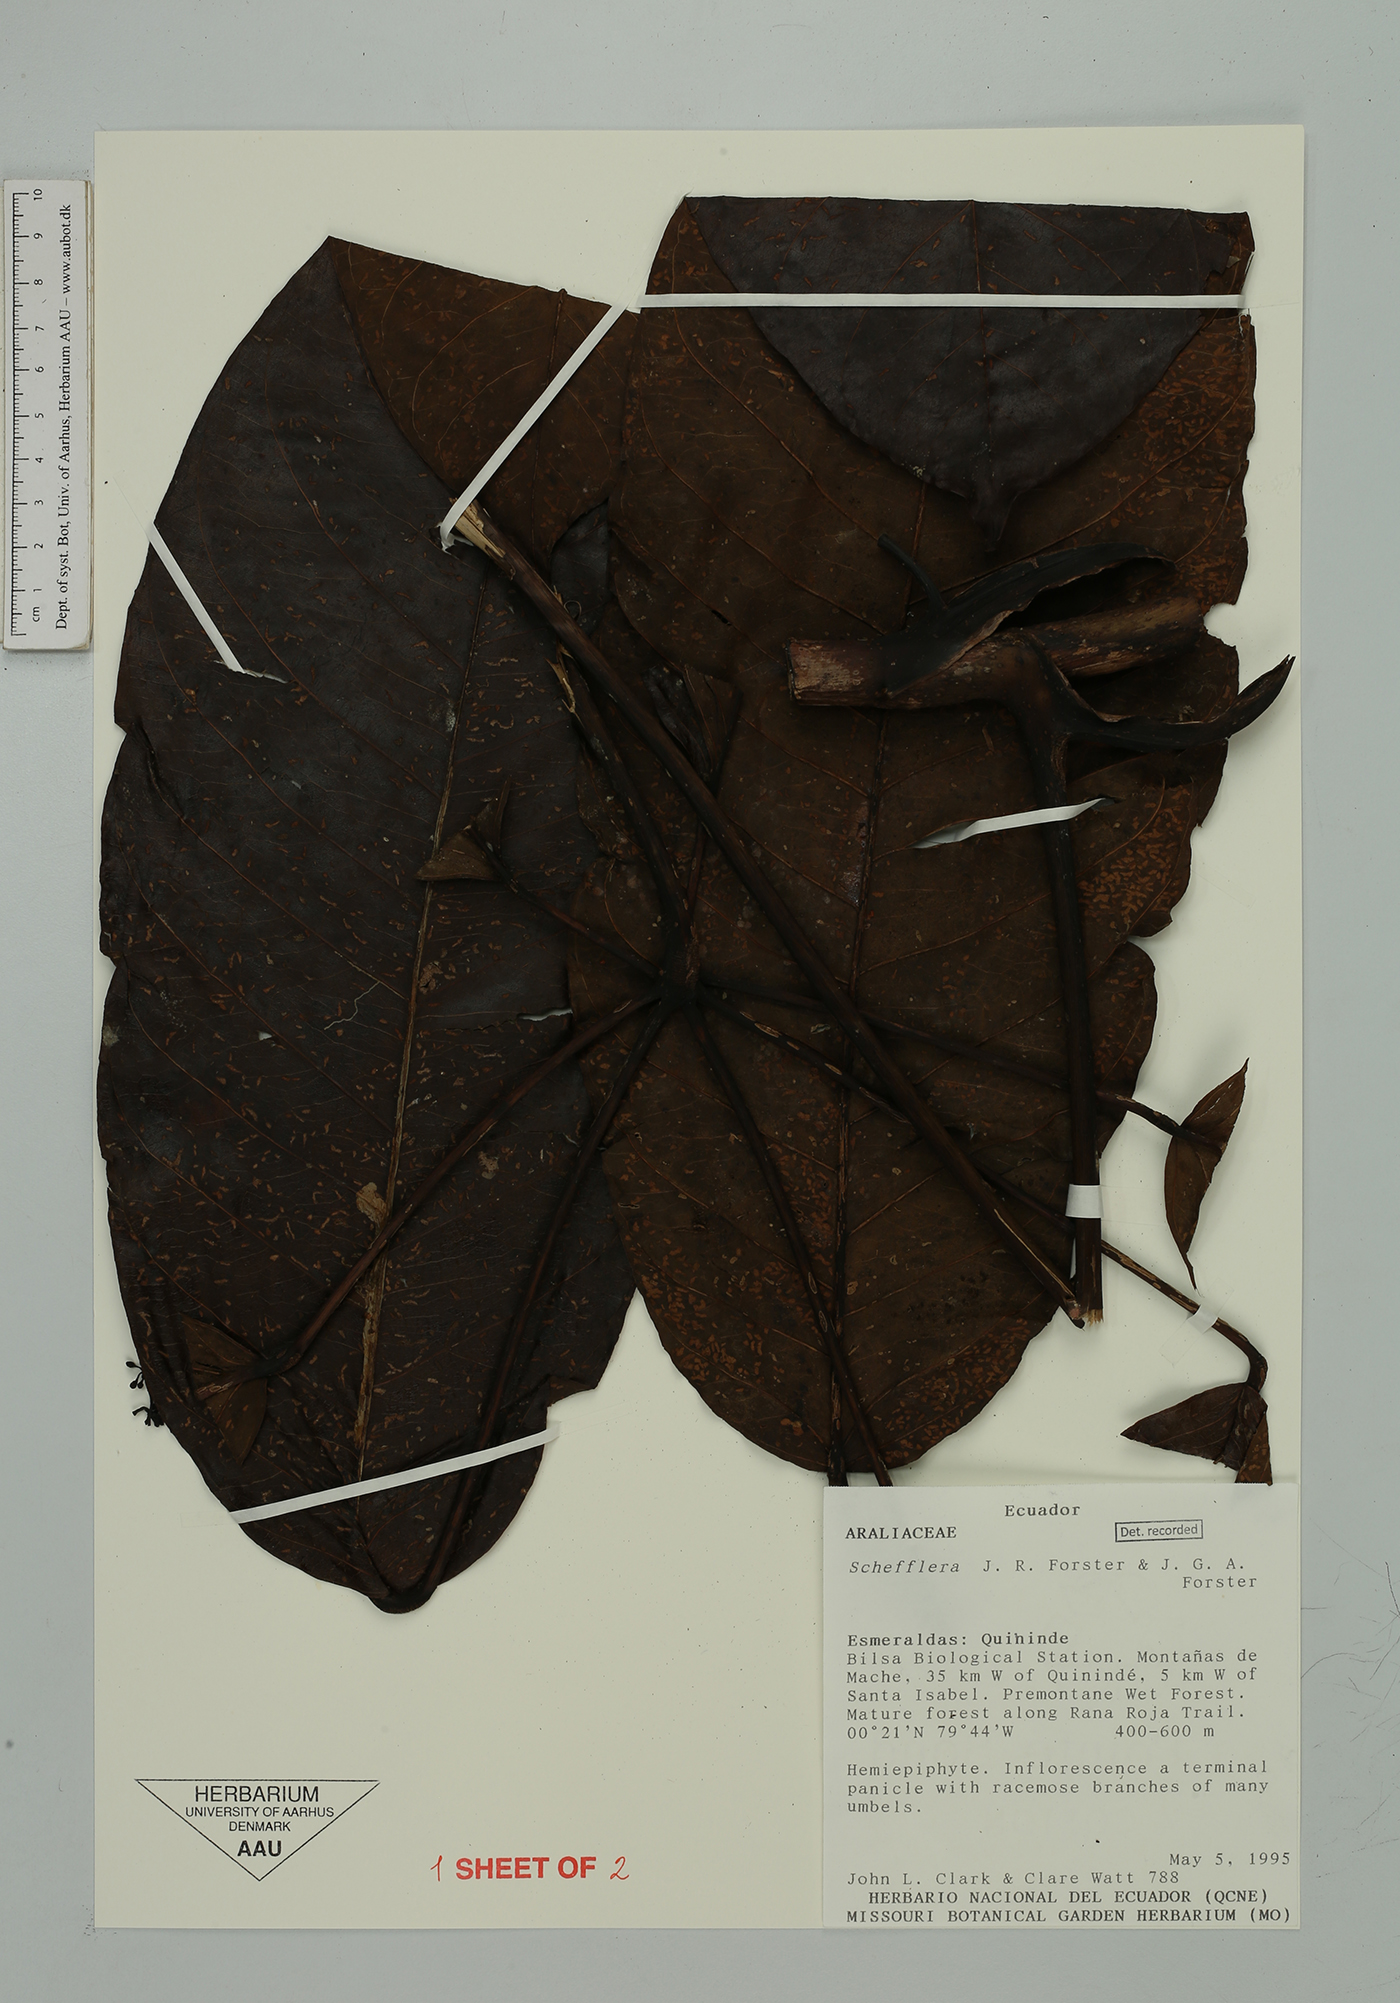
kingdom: Plantae
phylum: Tracheophyta
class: Magnoliopsida
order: Apiales
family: Araliaceae
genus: Sciodaphyllum
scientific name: Sciodaphyllum sphaerocoma
